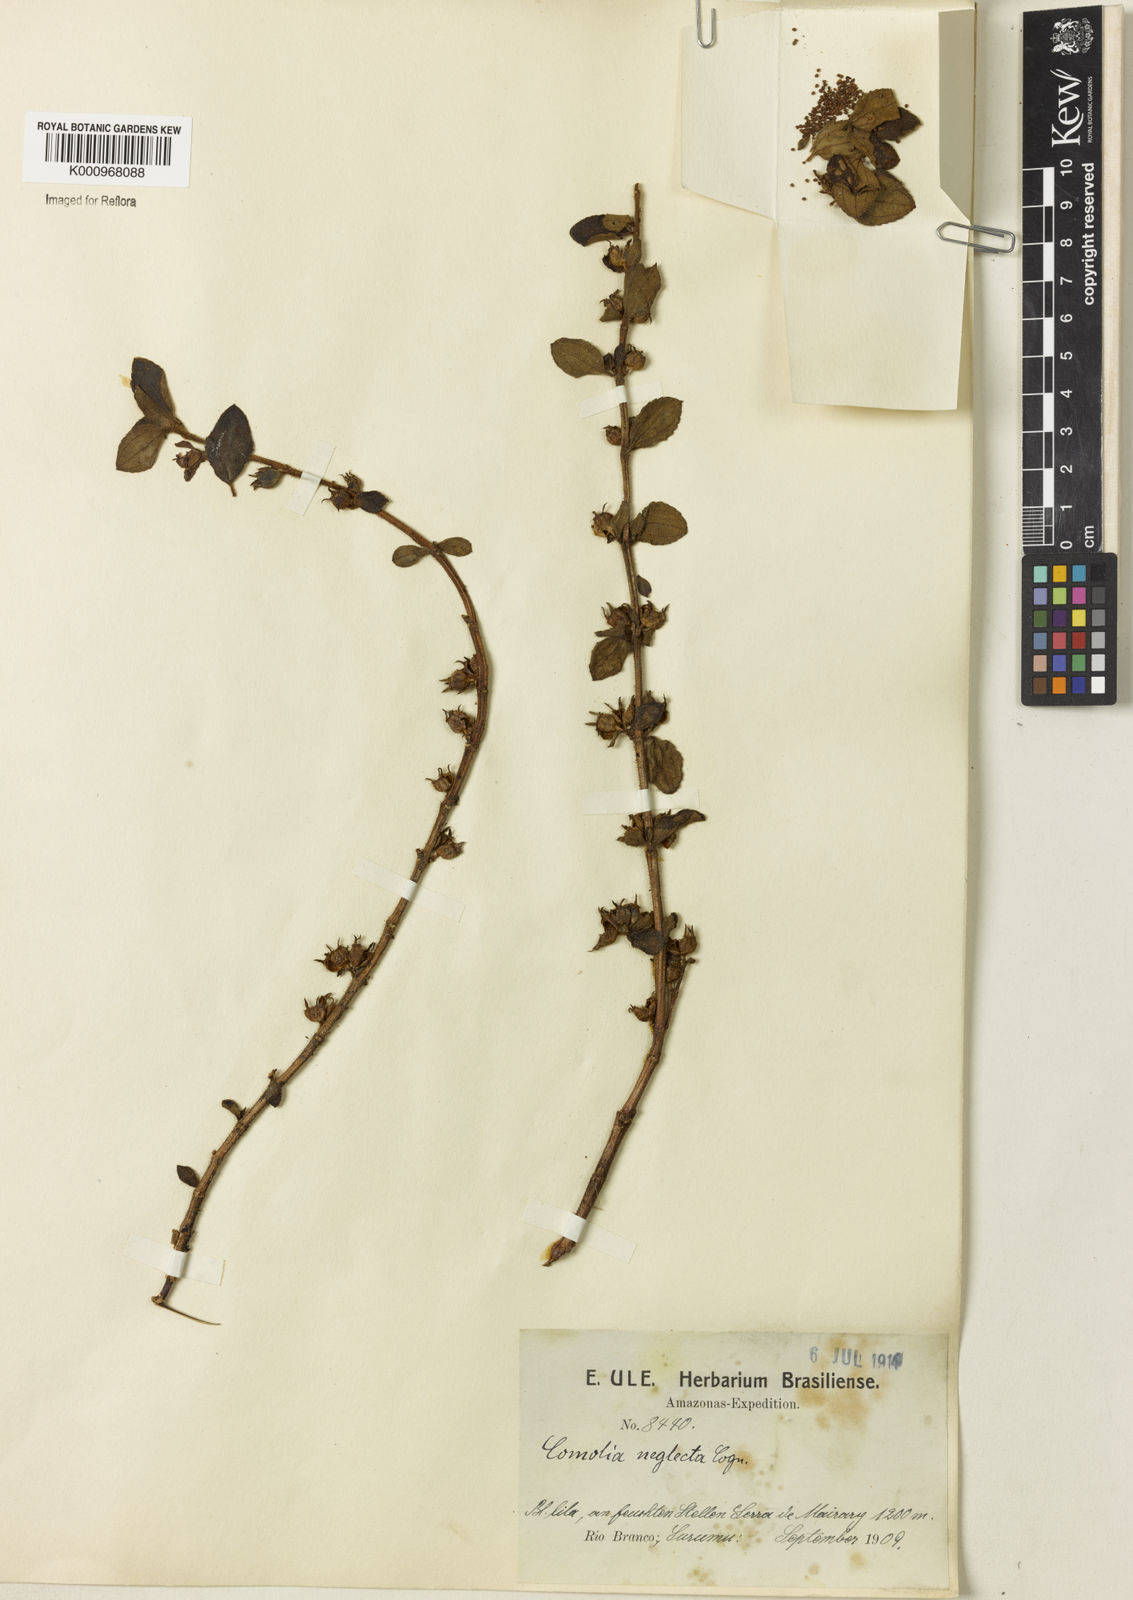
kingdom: Plantae
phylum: Tracheophyta
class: Magnoliopsida
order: Myrtales
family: Melastomataceae
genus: Comolia
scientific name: Comolia villosa
